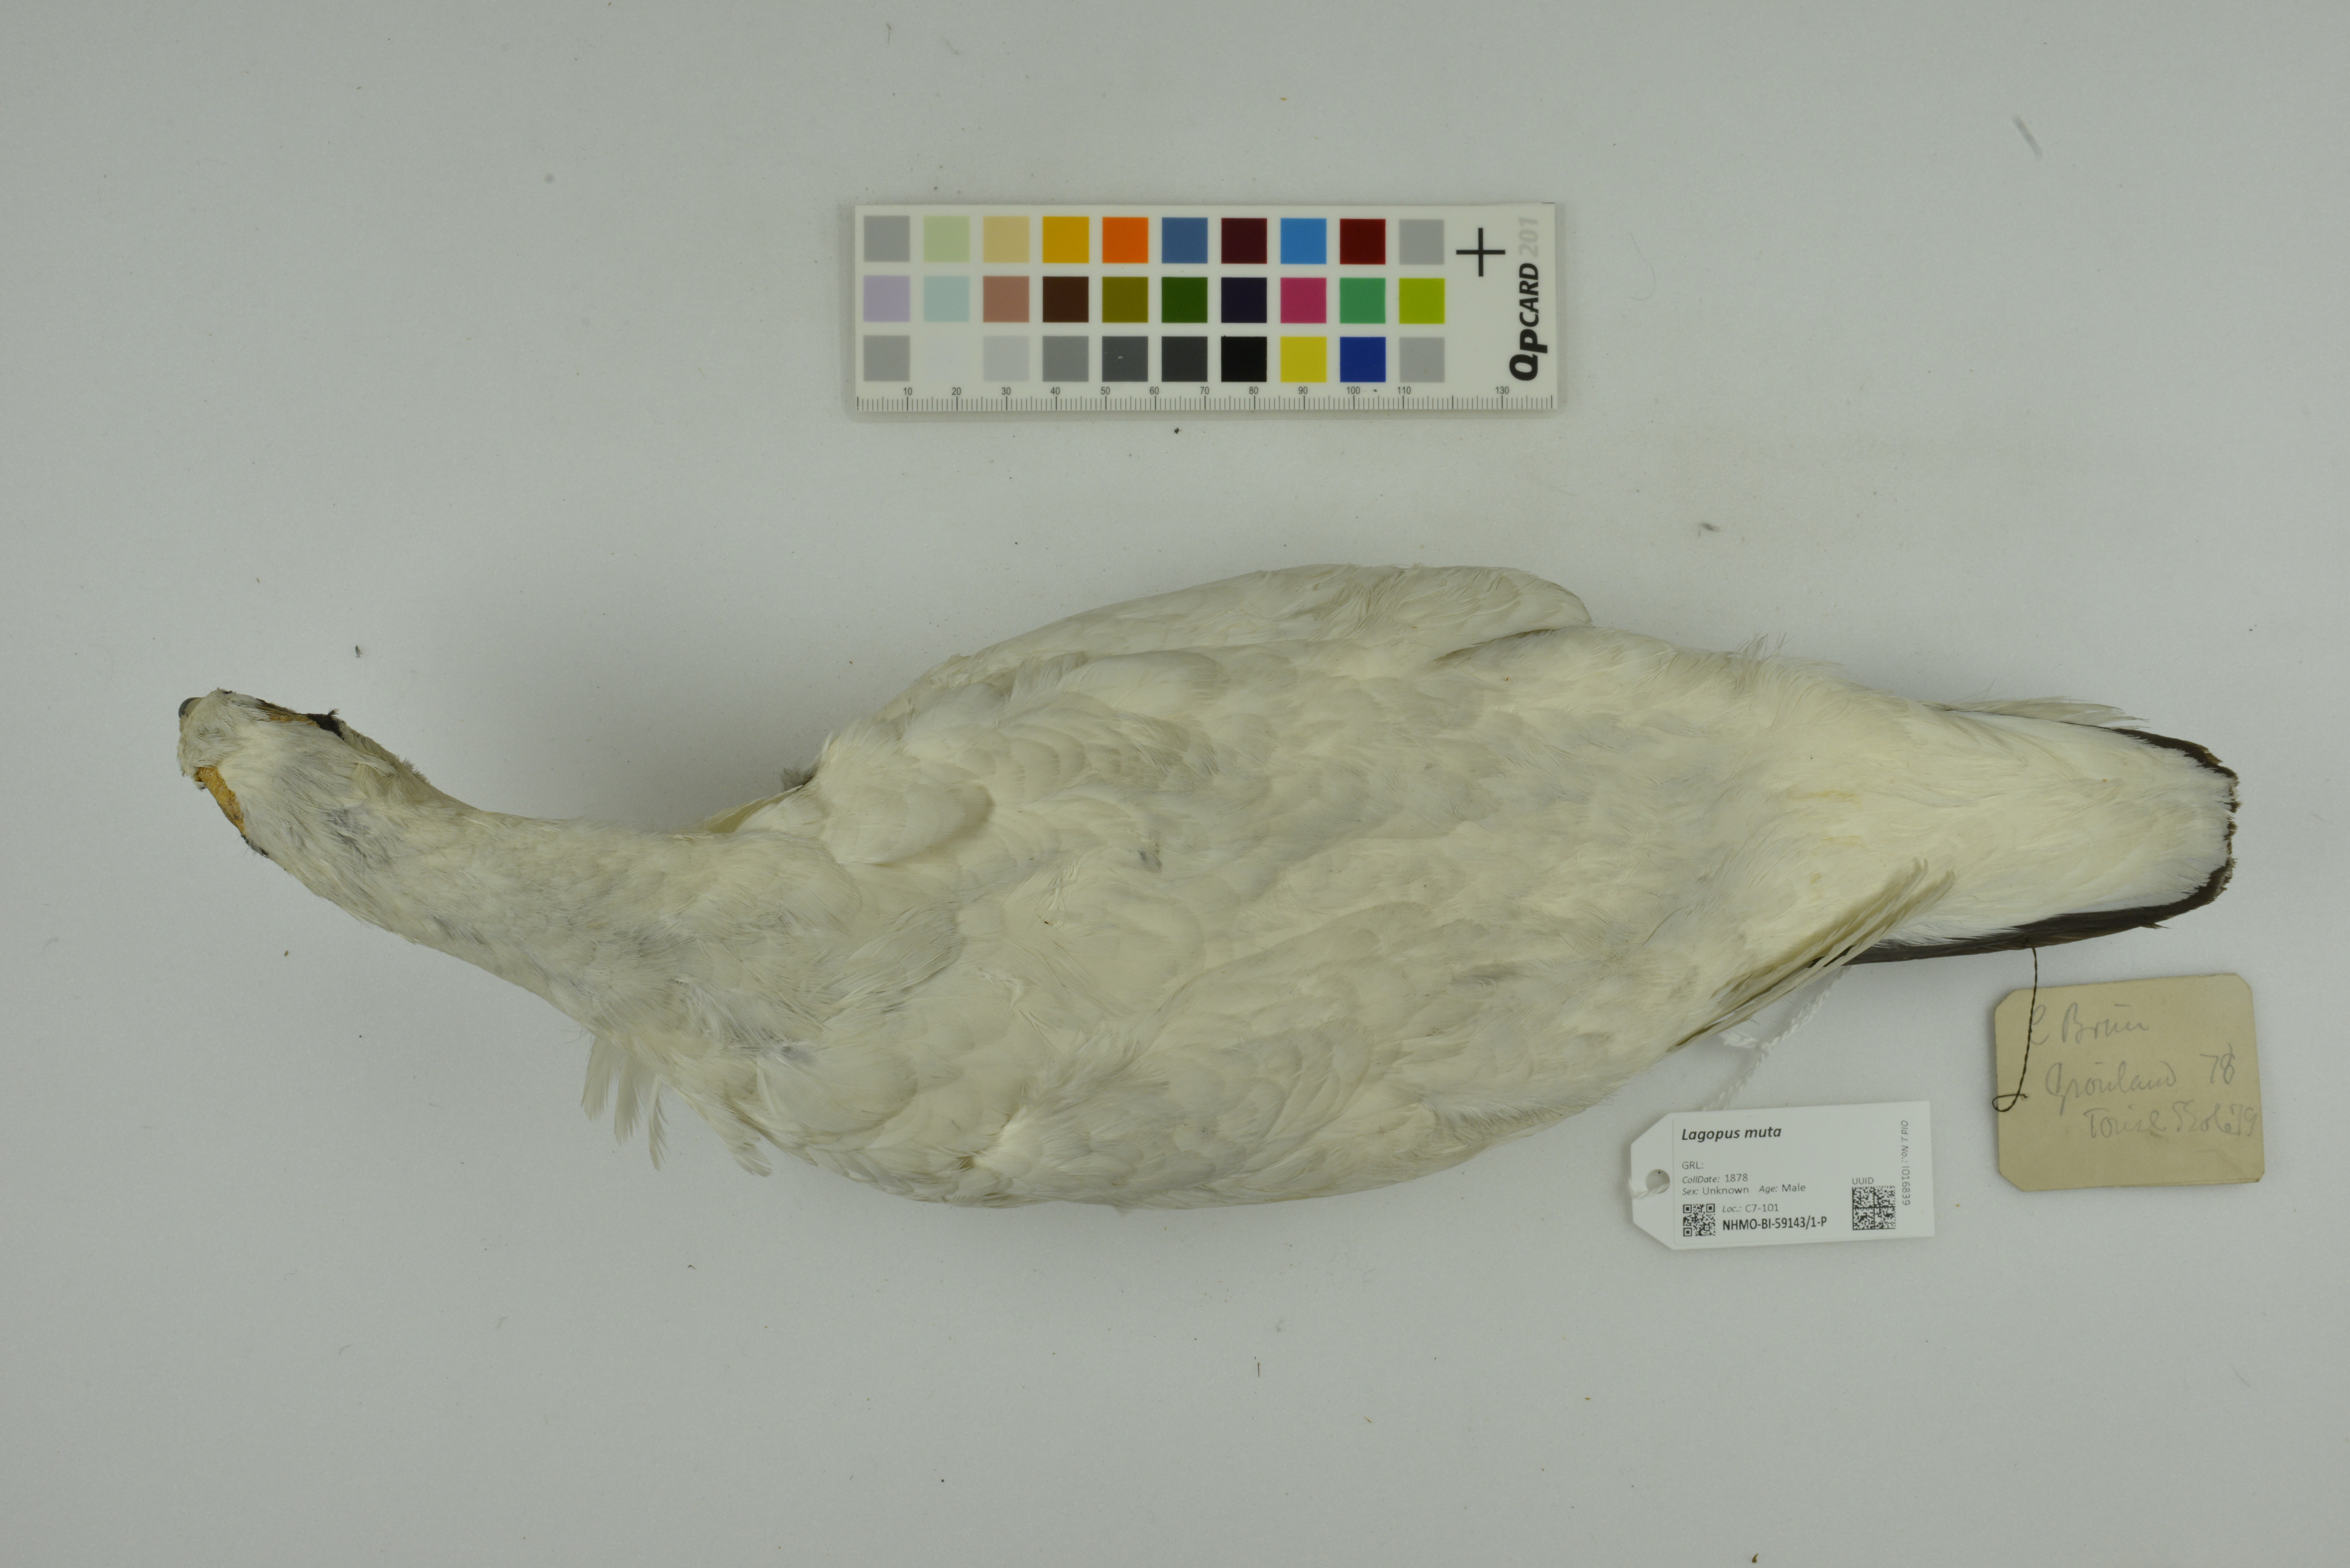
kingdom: Animalia
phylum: Chordata
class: Aves
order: Galliformes
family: Phasianidae
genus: Lagopus
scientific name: Lagopus muta
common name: Rock ptarmigan
